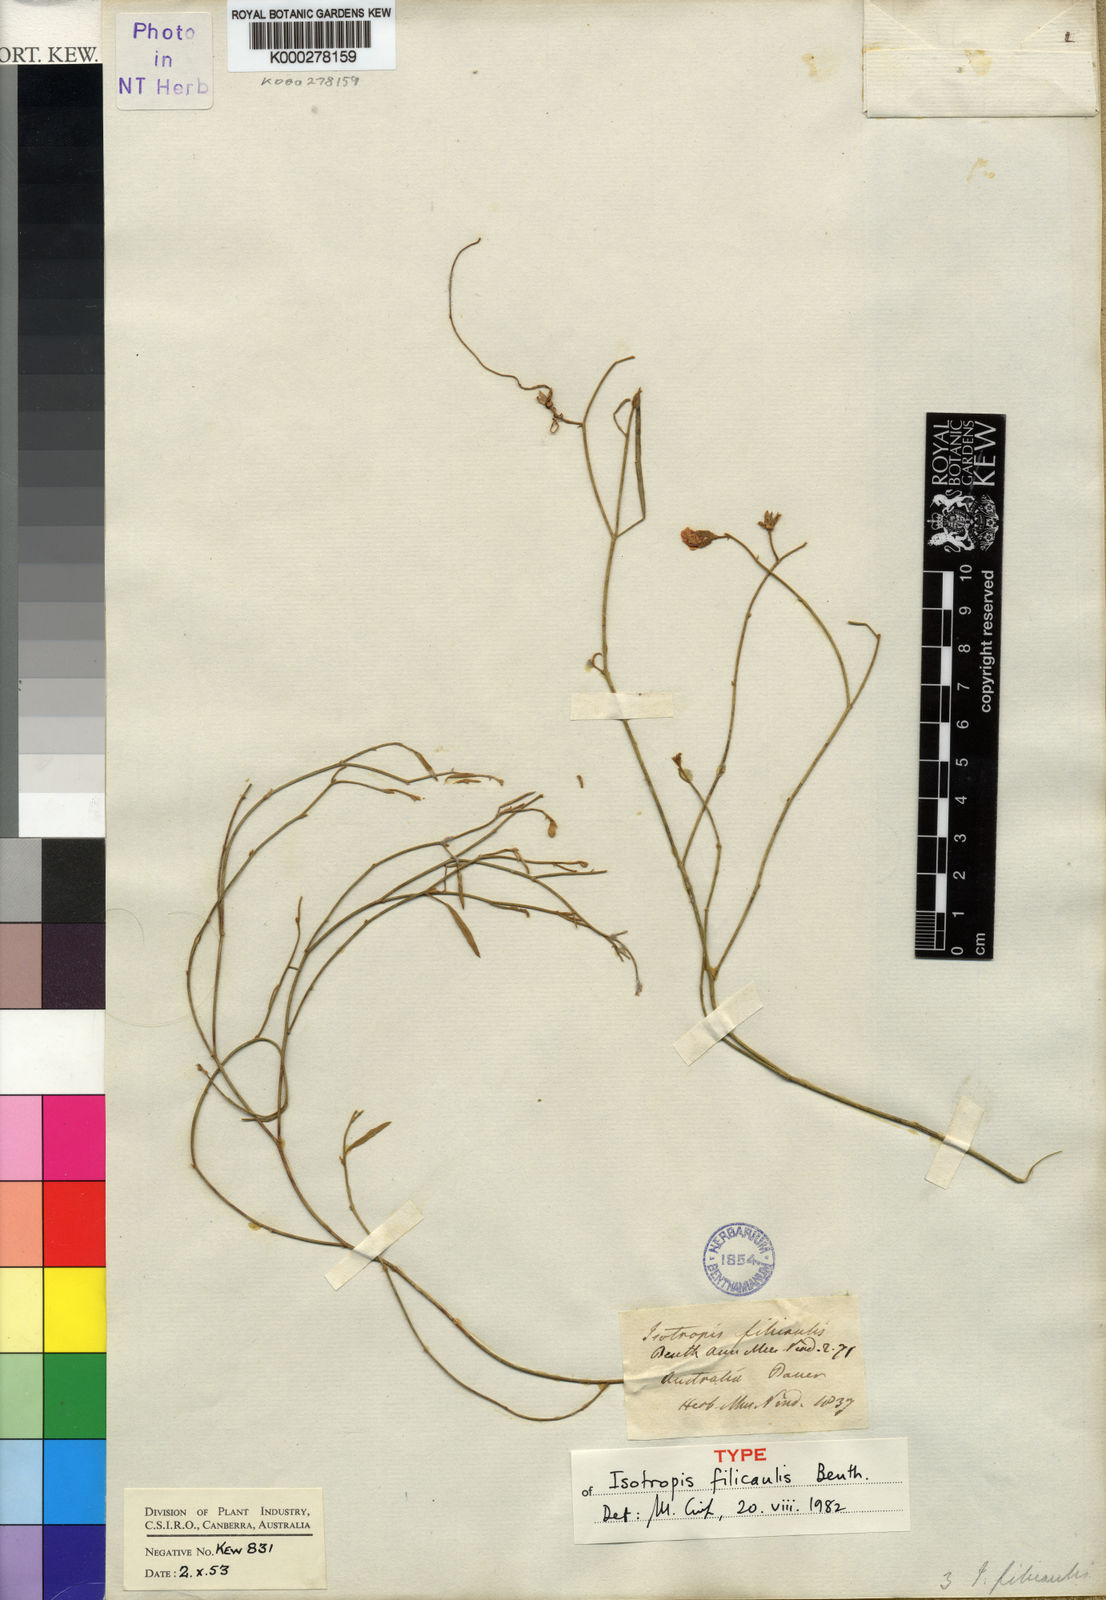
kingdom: Plantae
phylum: Tracheophyta
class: Magnoliopsida
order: Fabales
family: Fabaceae
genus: Isotropis
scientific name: Isotropis filicaulis
